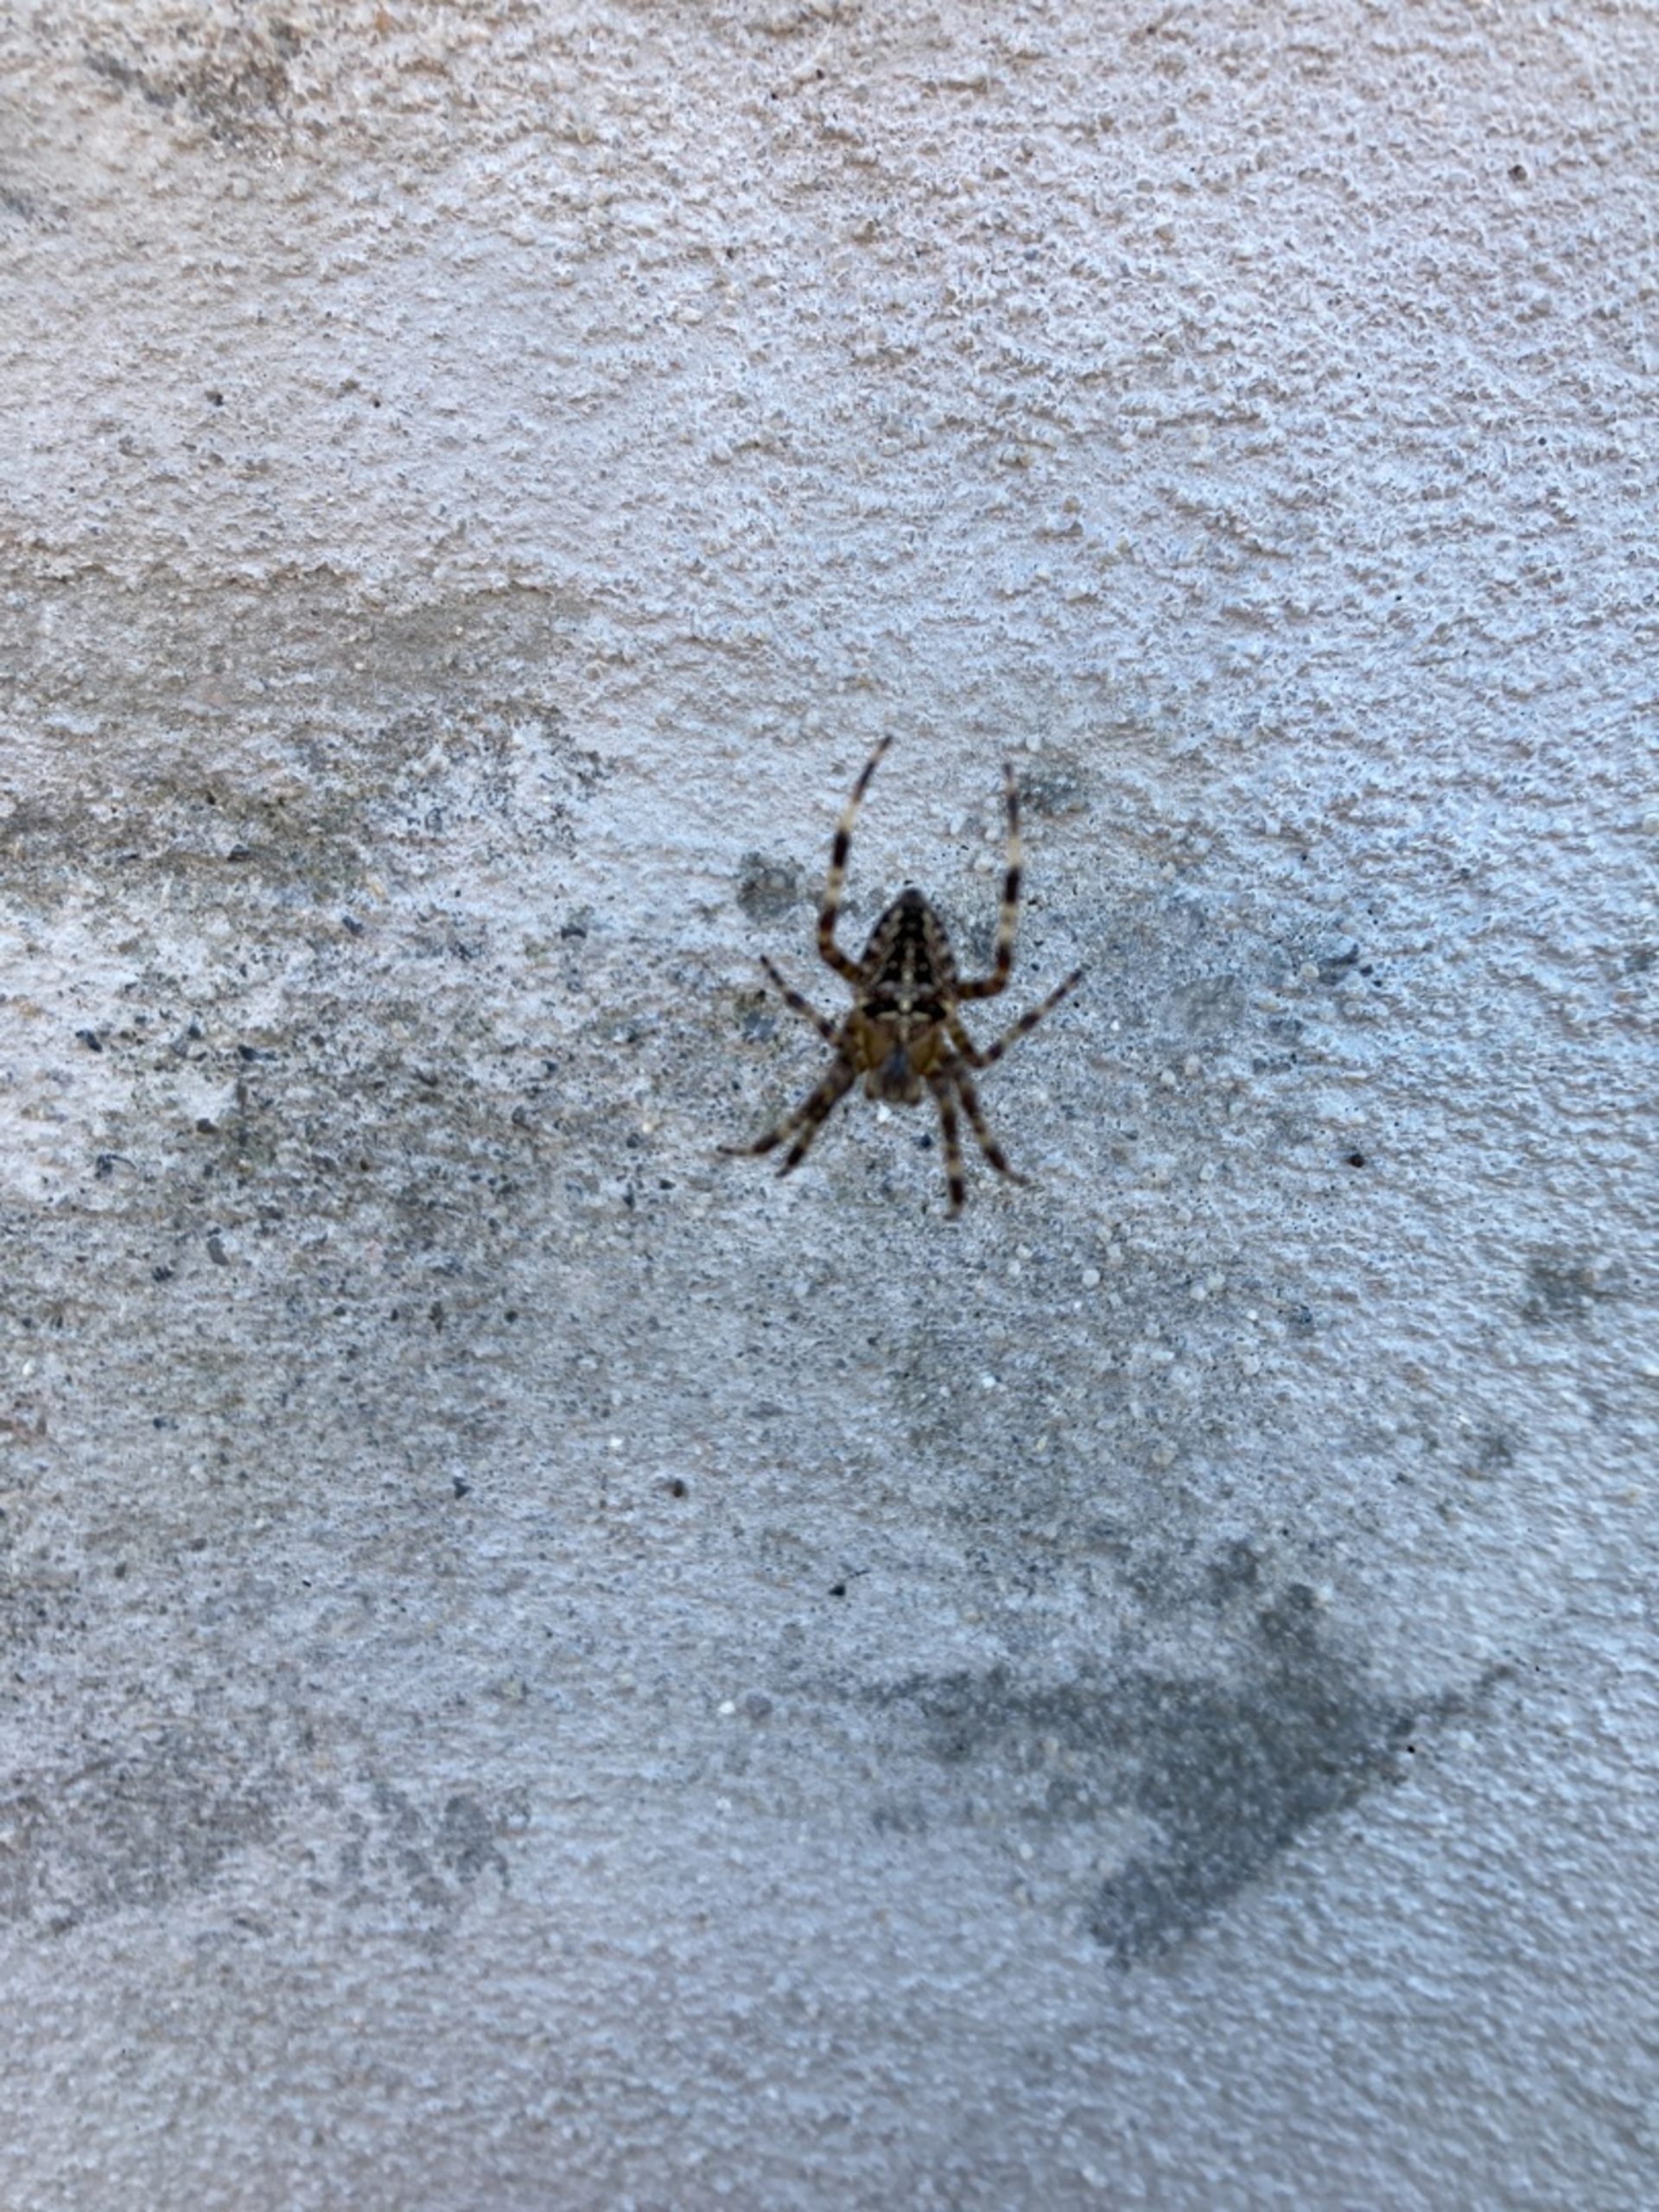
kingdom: Animalia
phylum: Arthropoda
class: Arachnida
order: Araneae
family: Araneidae
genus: Araneus
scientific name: Araneus diadematus
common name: Korsedderkop
